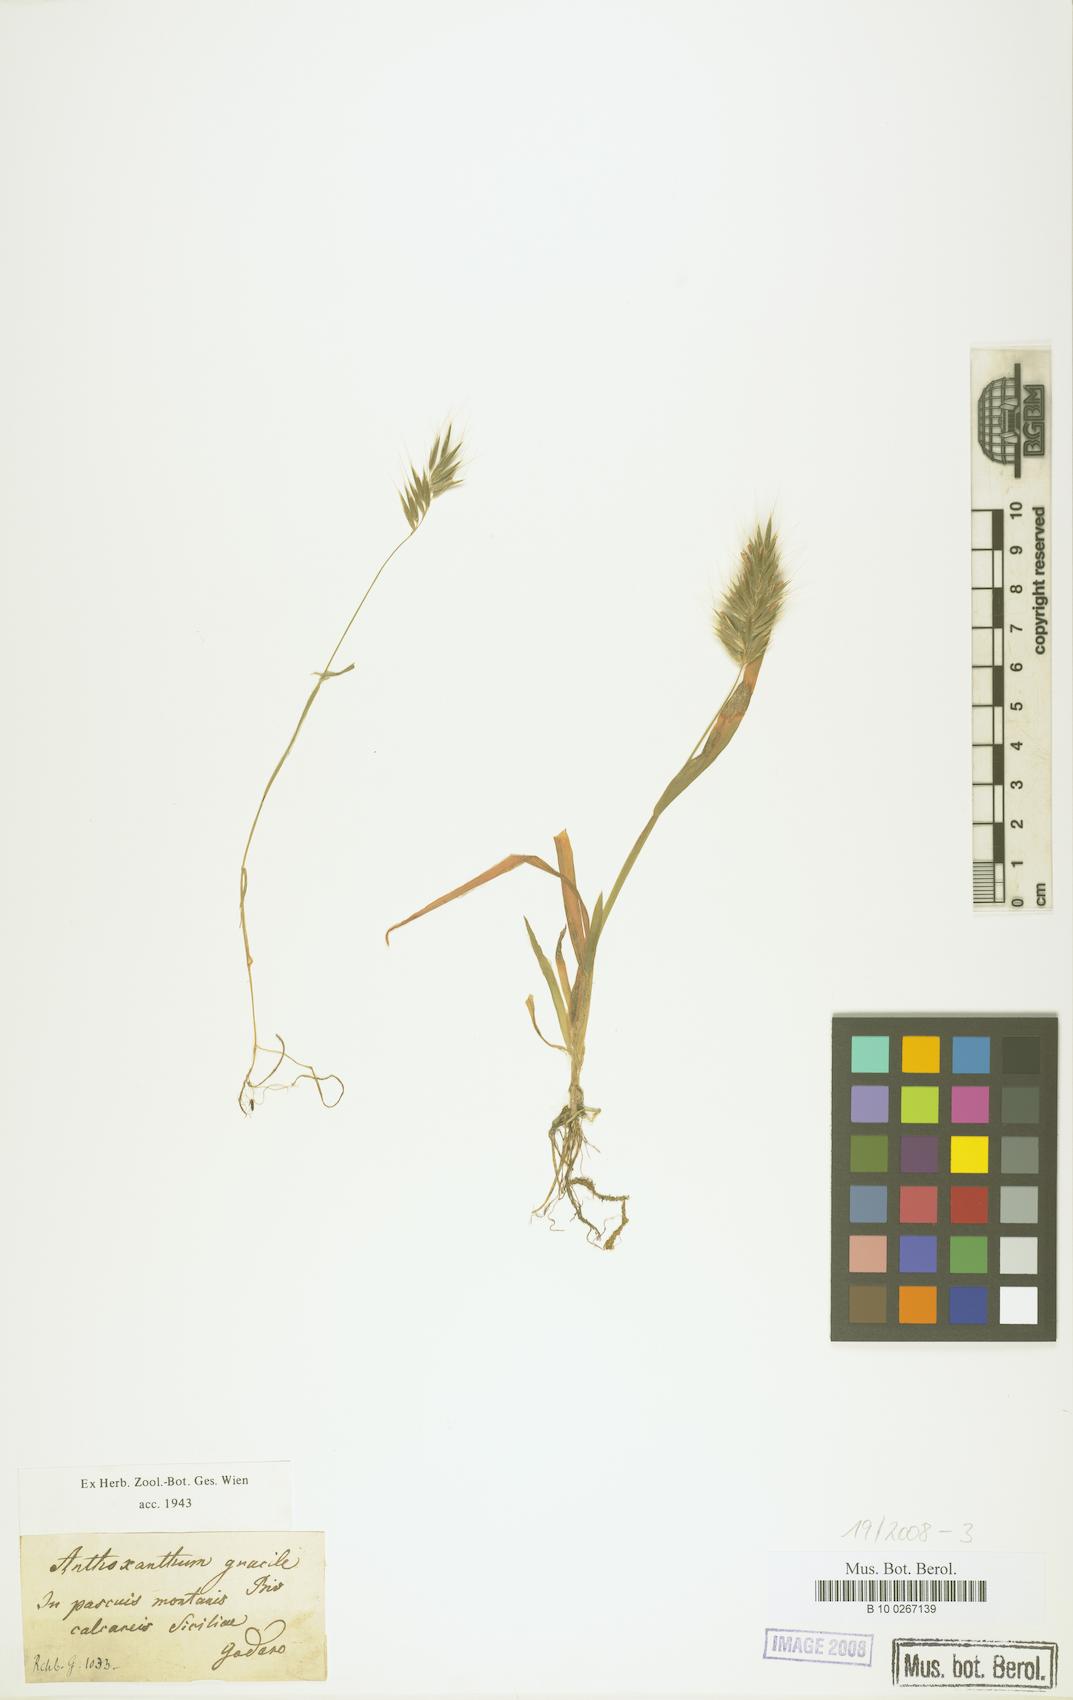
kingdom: Plantae
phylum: Tracheophyta
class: Liliopsida
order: Poales
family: Poaceae
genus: Anthoxanthum
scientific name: Anthoxanthum gracile
